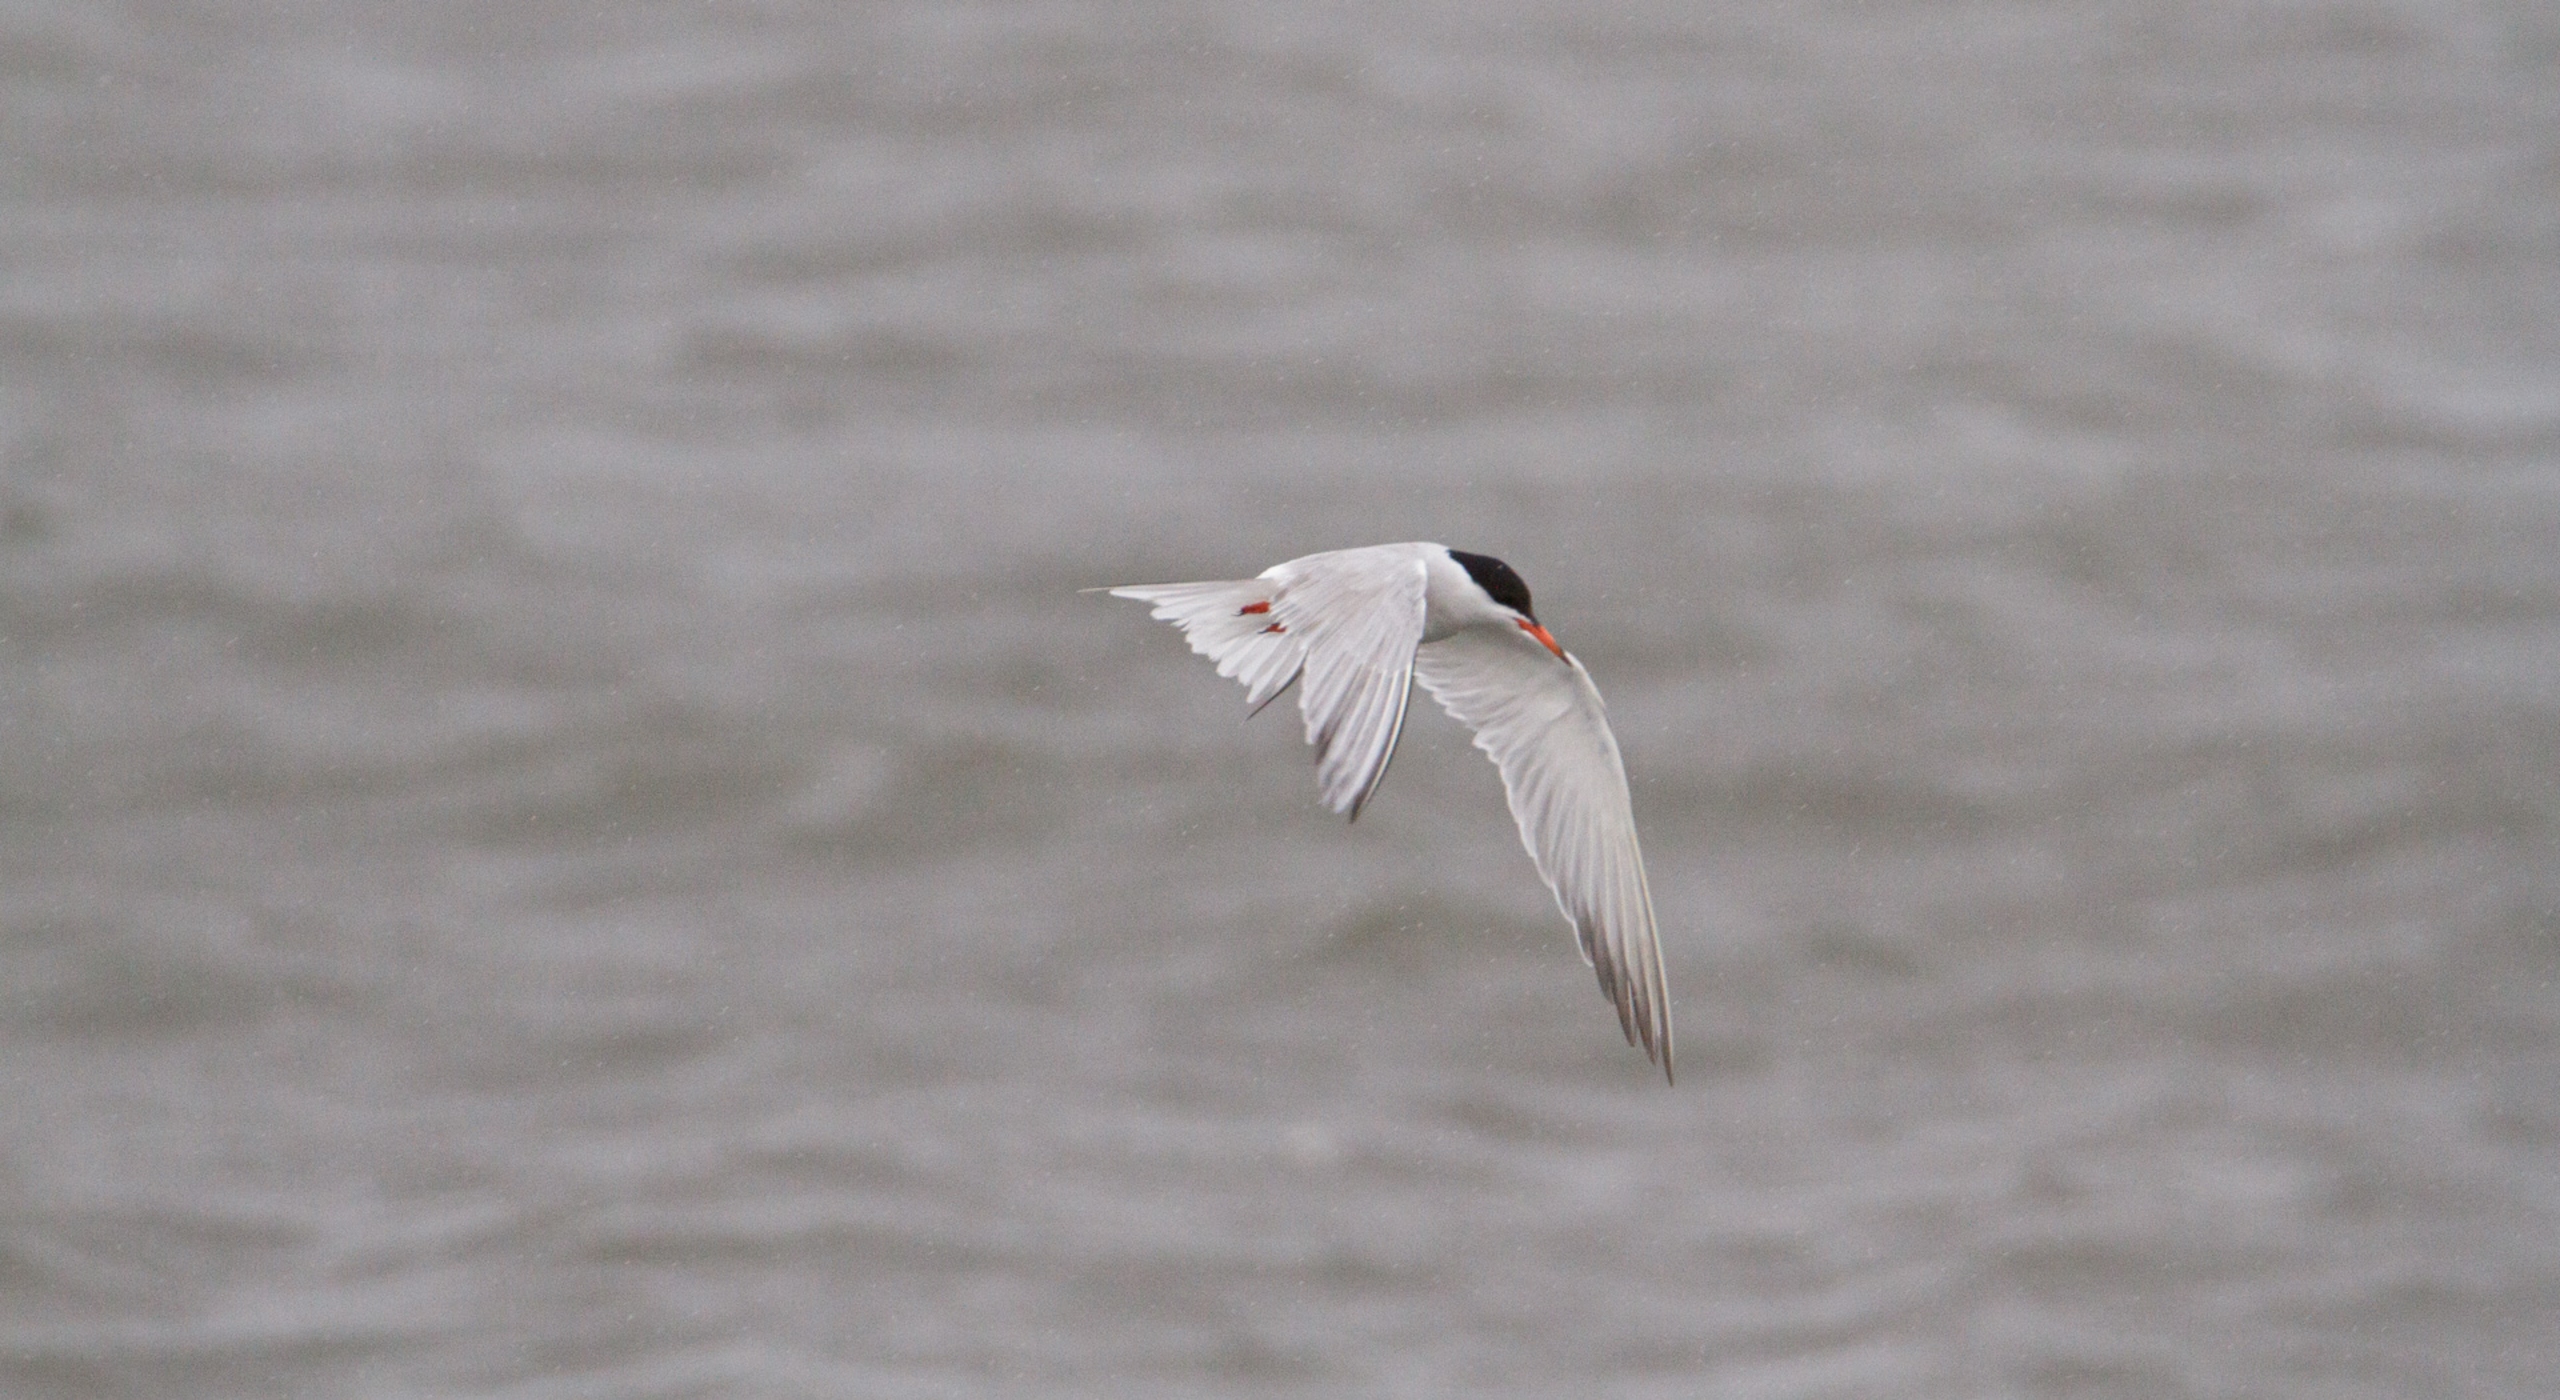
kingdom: Animalia
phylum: Chordata
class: Aves
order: Charadriiformes
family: Laridae
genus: Sterna
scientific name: Sterna hirundo
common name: Fjordterne
